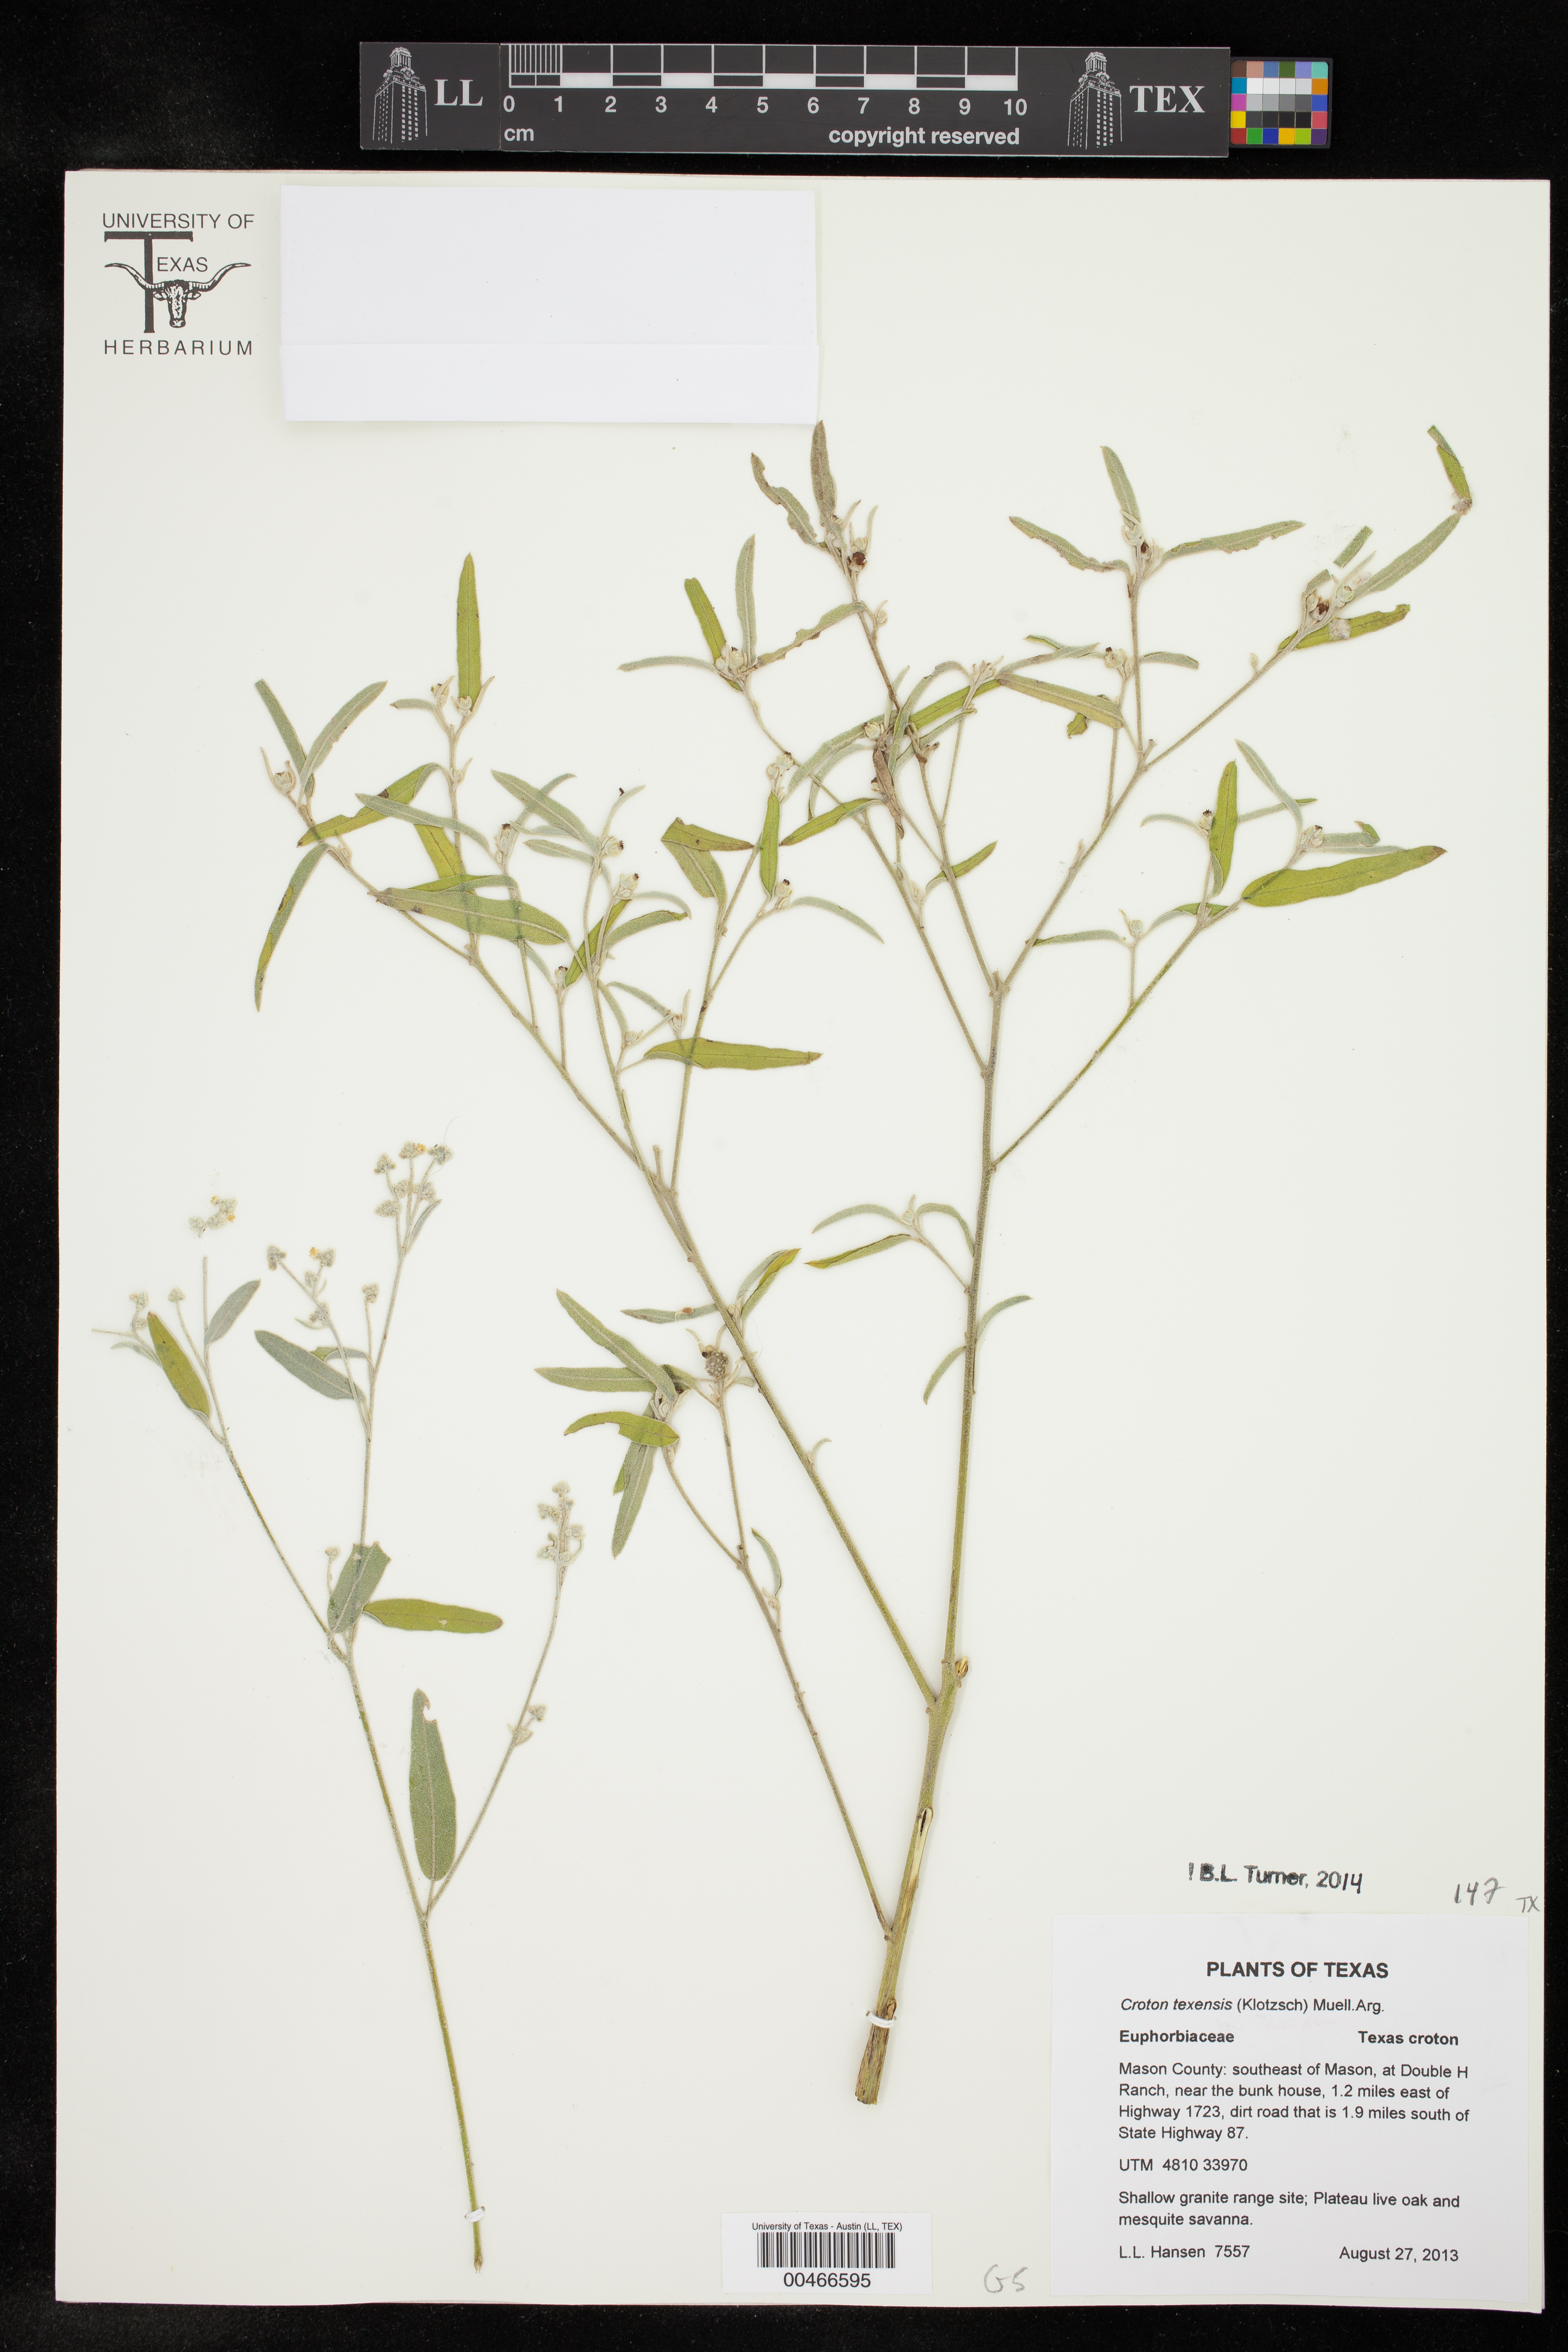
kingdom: Plantae
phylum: Tracheophyta
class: Magnoliopsida
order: Malpighiales
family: Euphorbiaceae
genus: Croton
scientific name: Croton texensis
